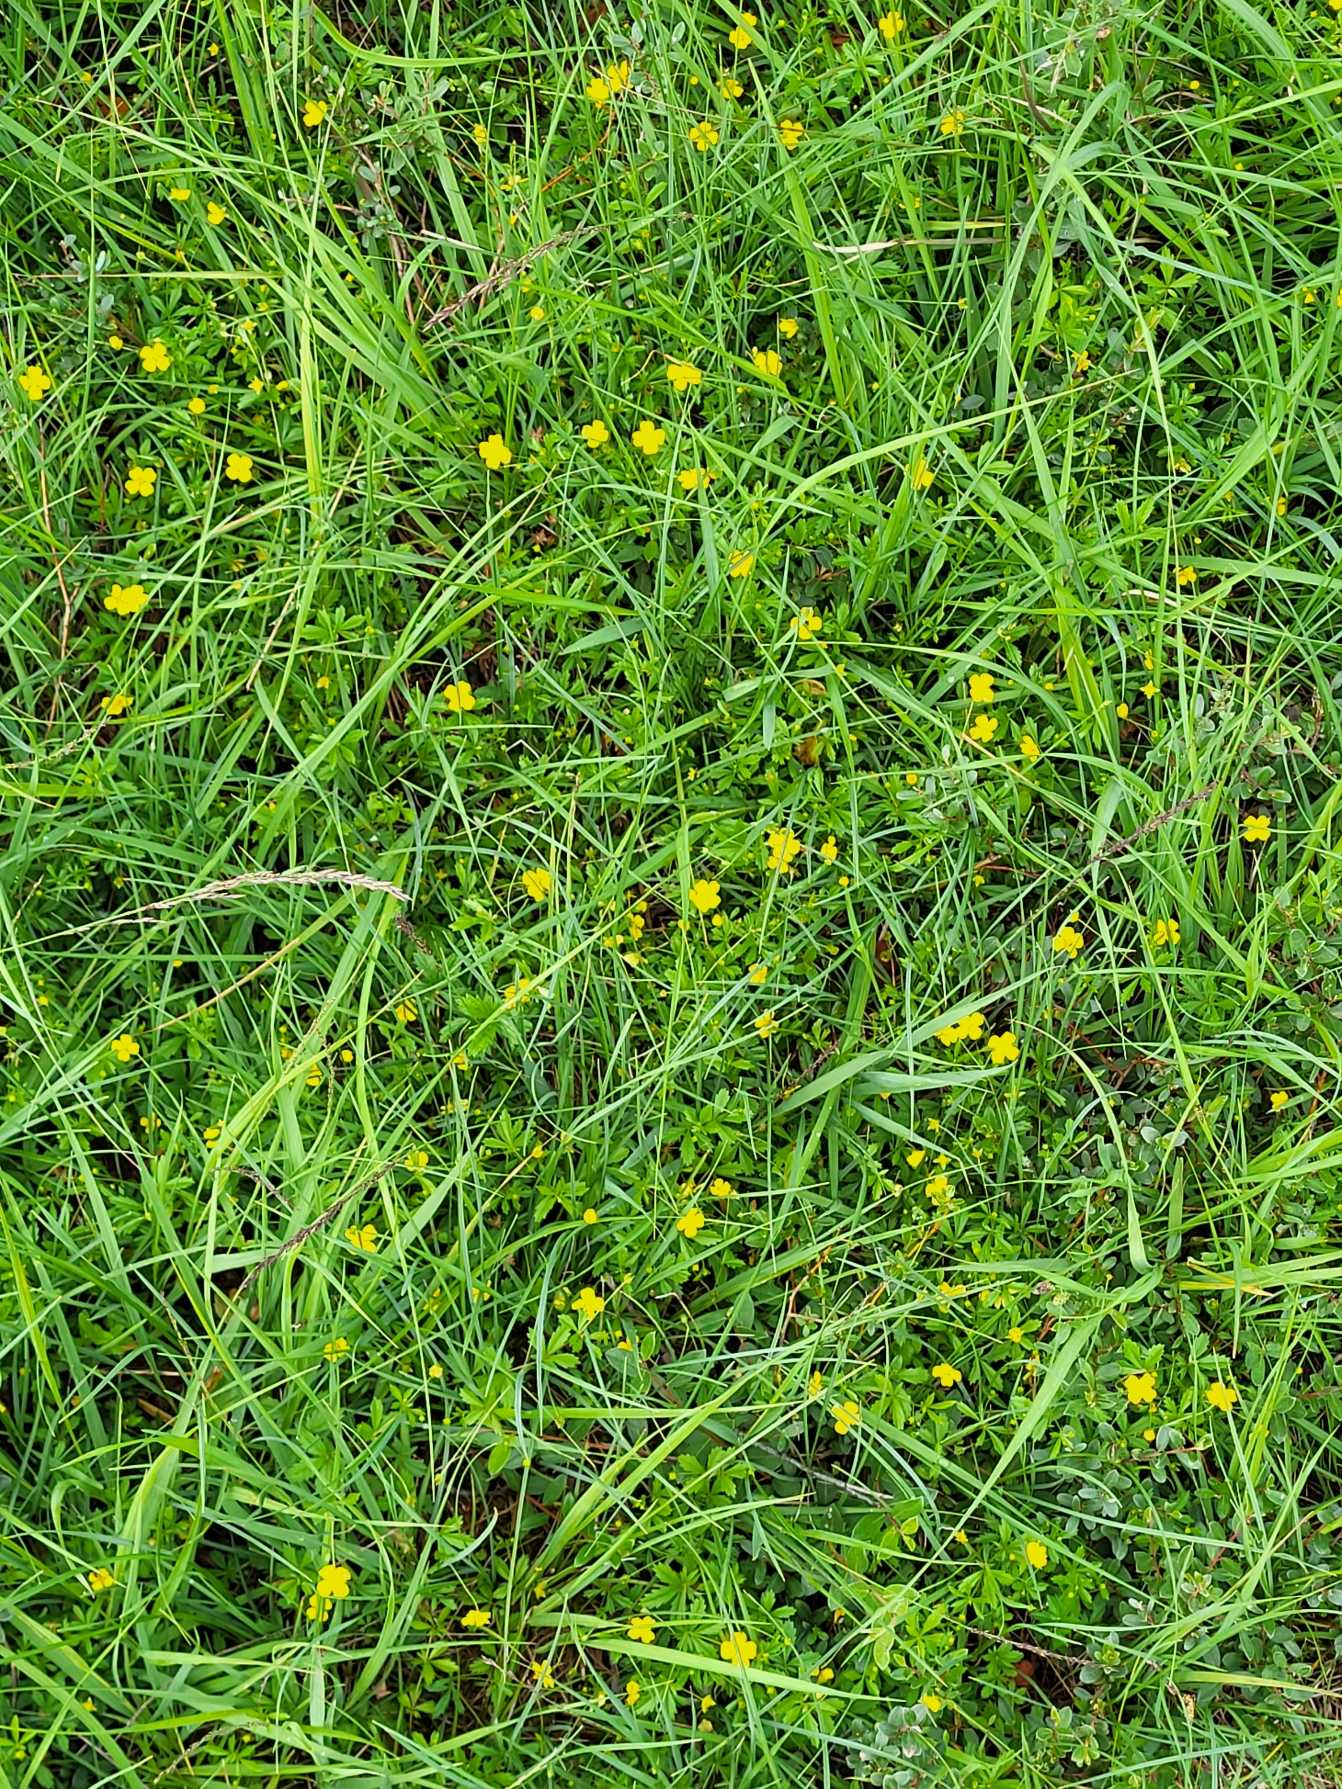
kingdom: Plantae
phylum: Tracheophyta
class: Magnoliopsida
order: Rosales
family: Rosaceae
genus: Potentilla
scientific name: Potentilla erecta
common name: Tormentil
